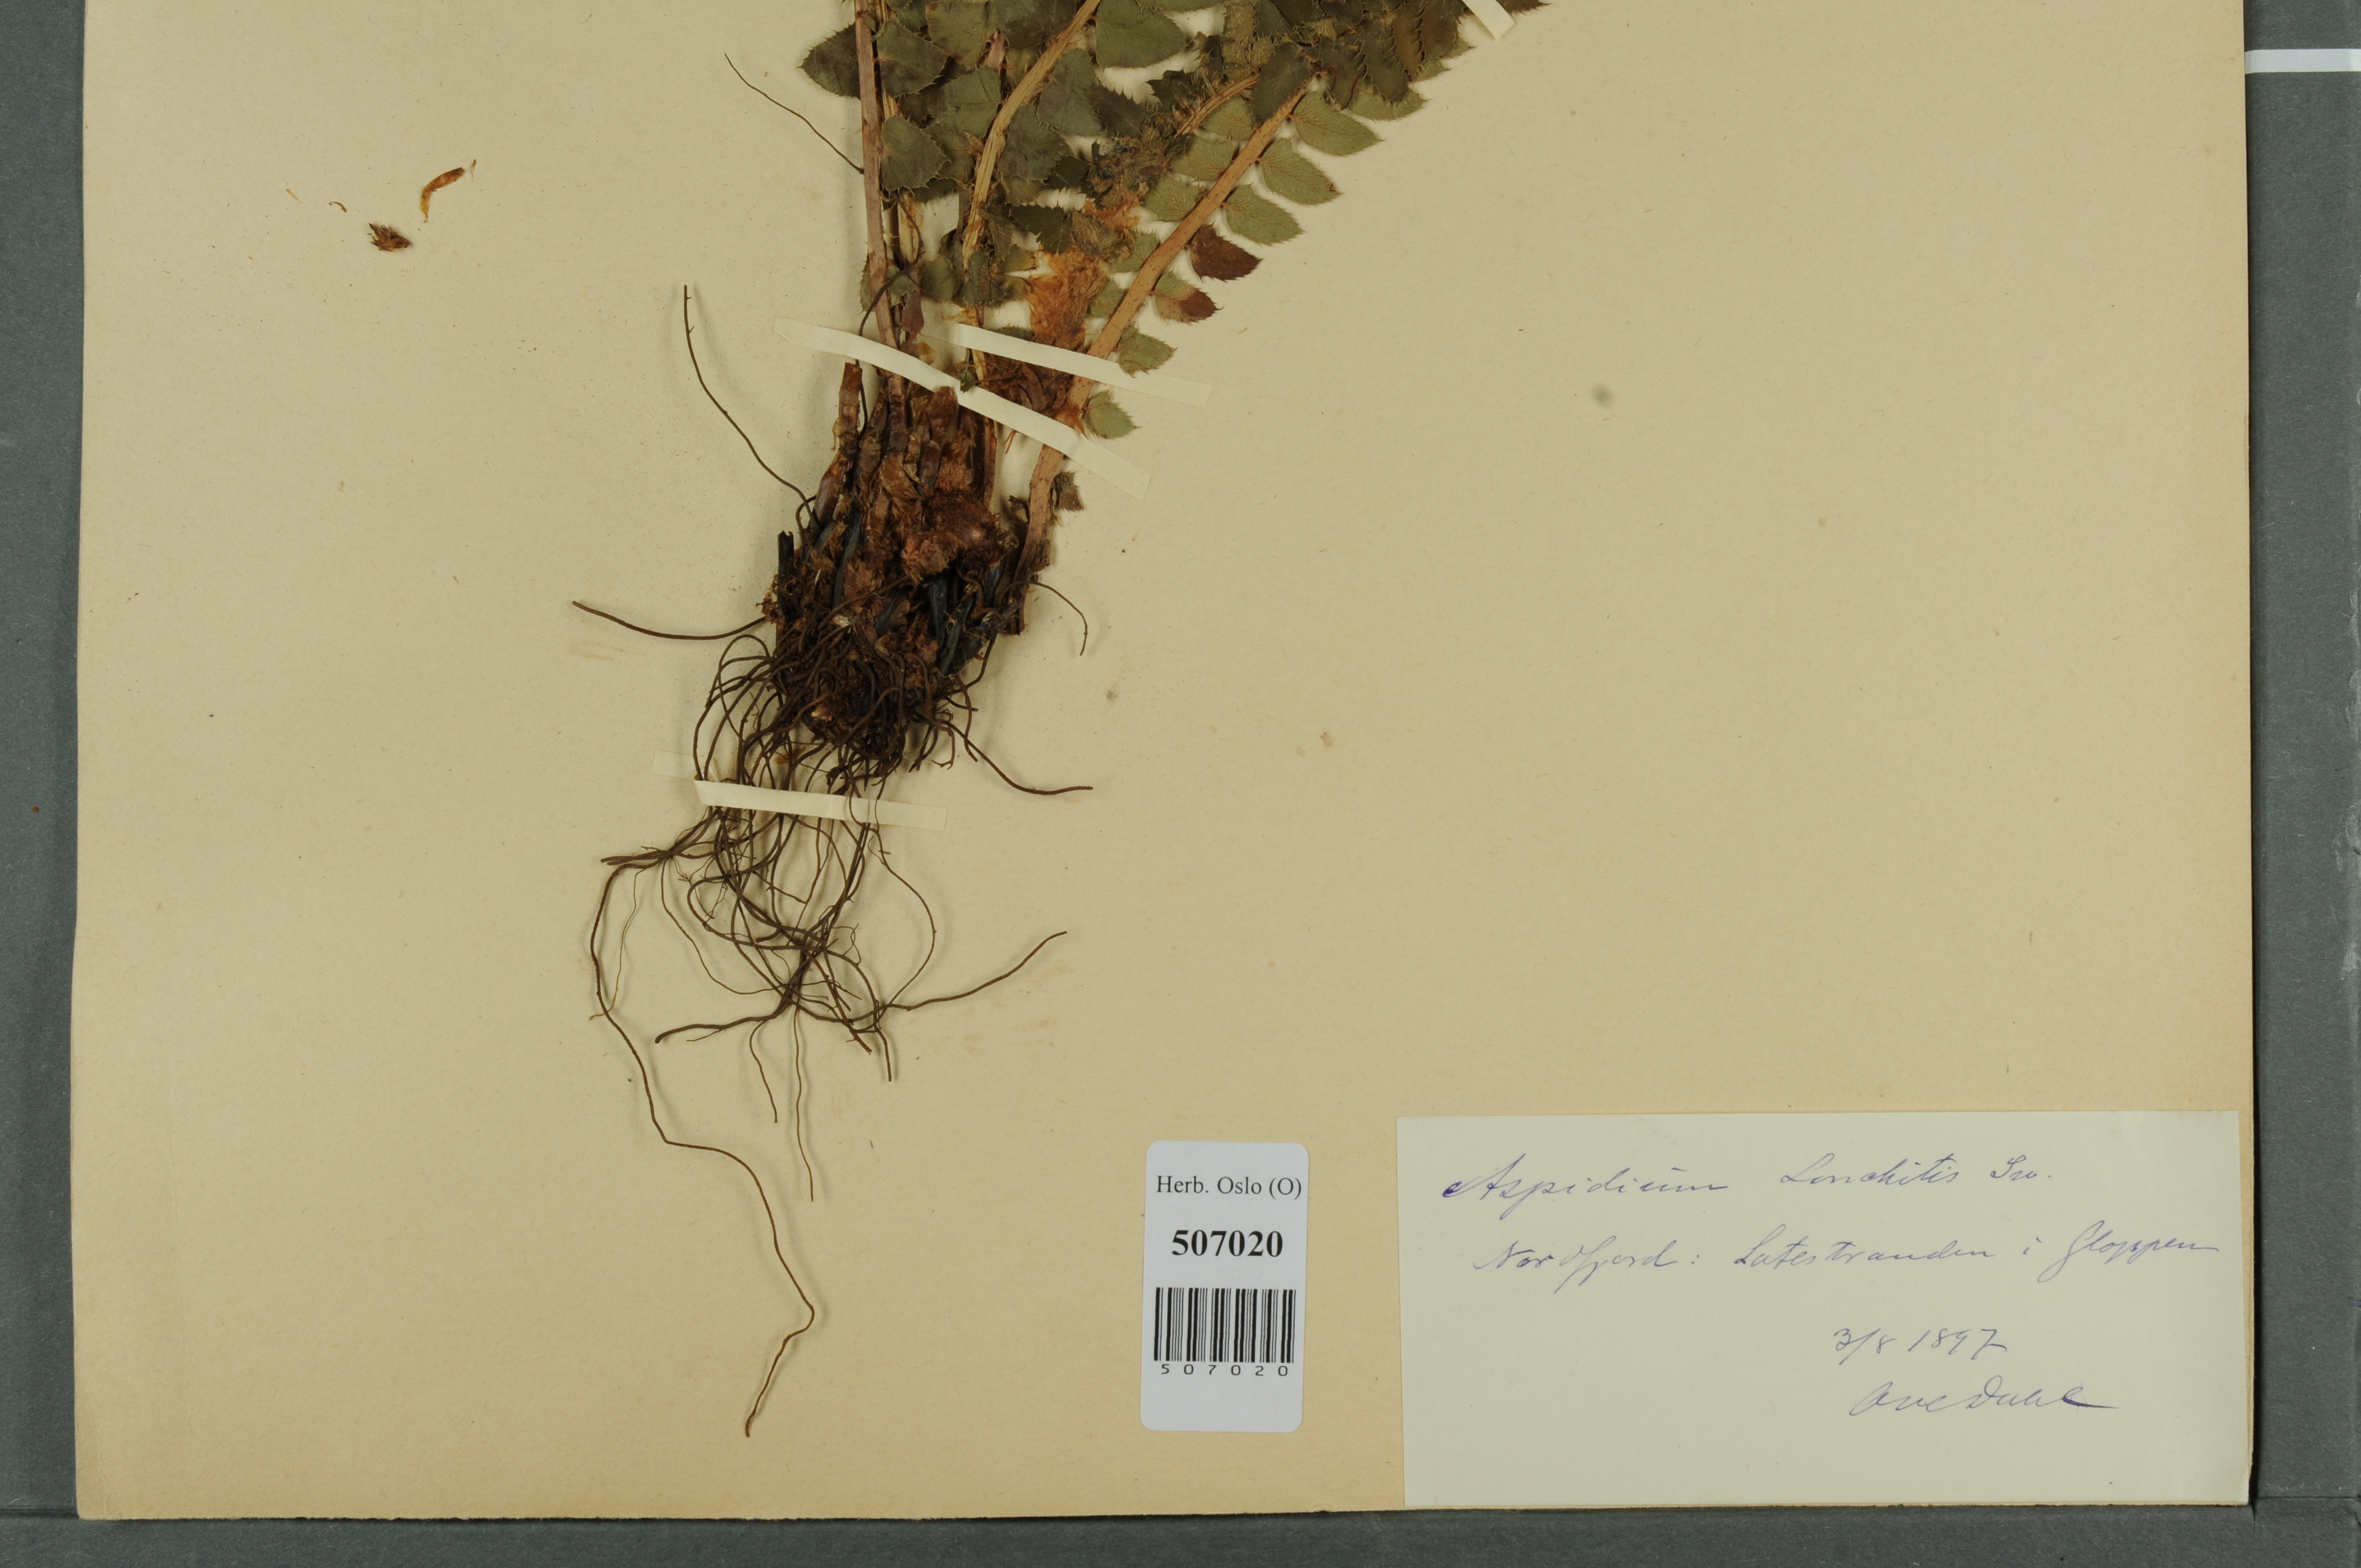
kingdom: Plantae
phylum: Tracheophyta
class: Polypodiopsida
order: Polypodiales
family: Dryopteridaceae
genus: Polystichum
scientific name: Polystichum lonchitis
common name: Holly fern
